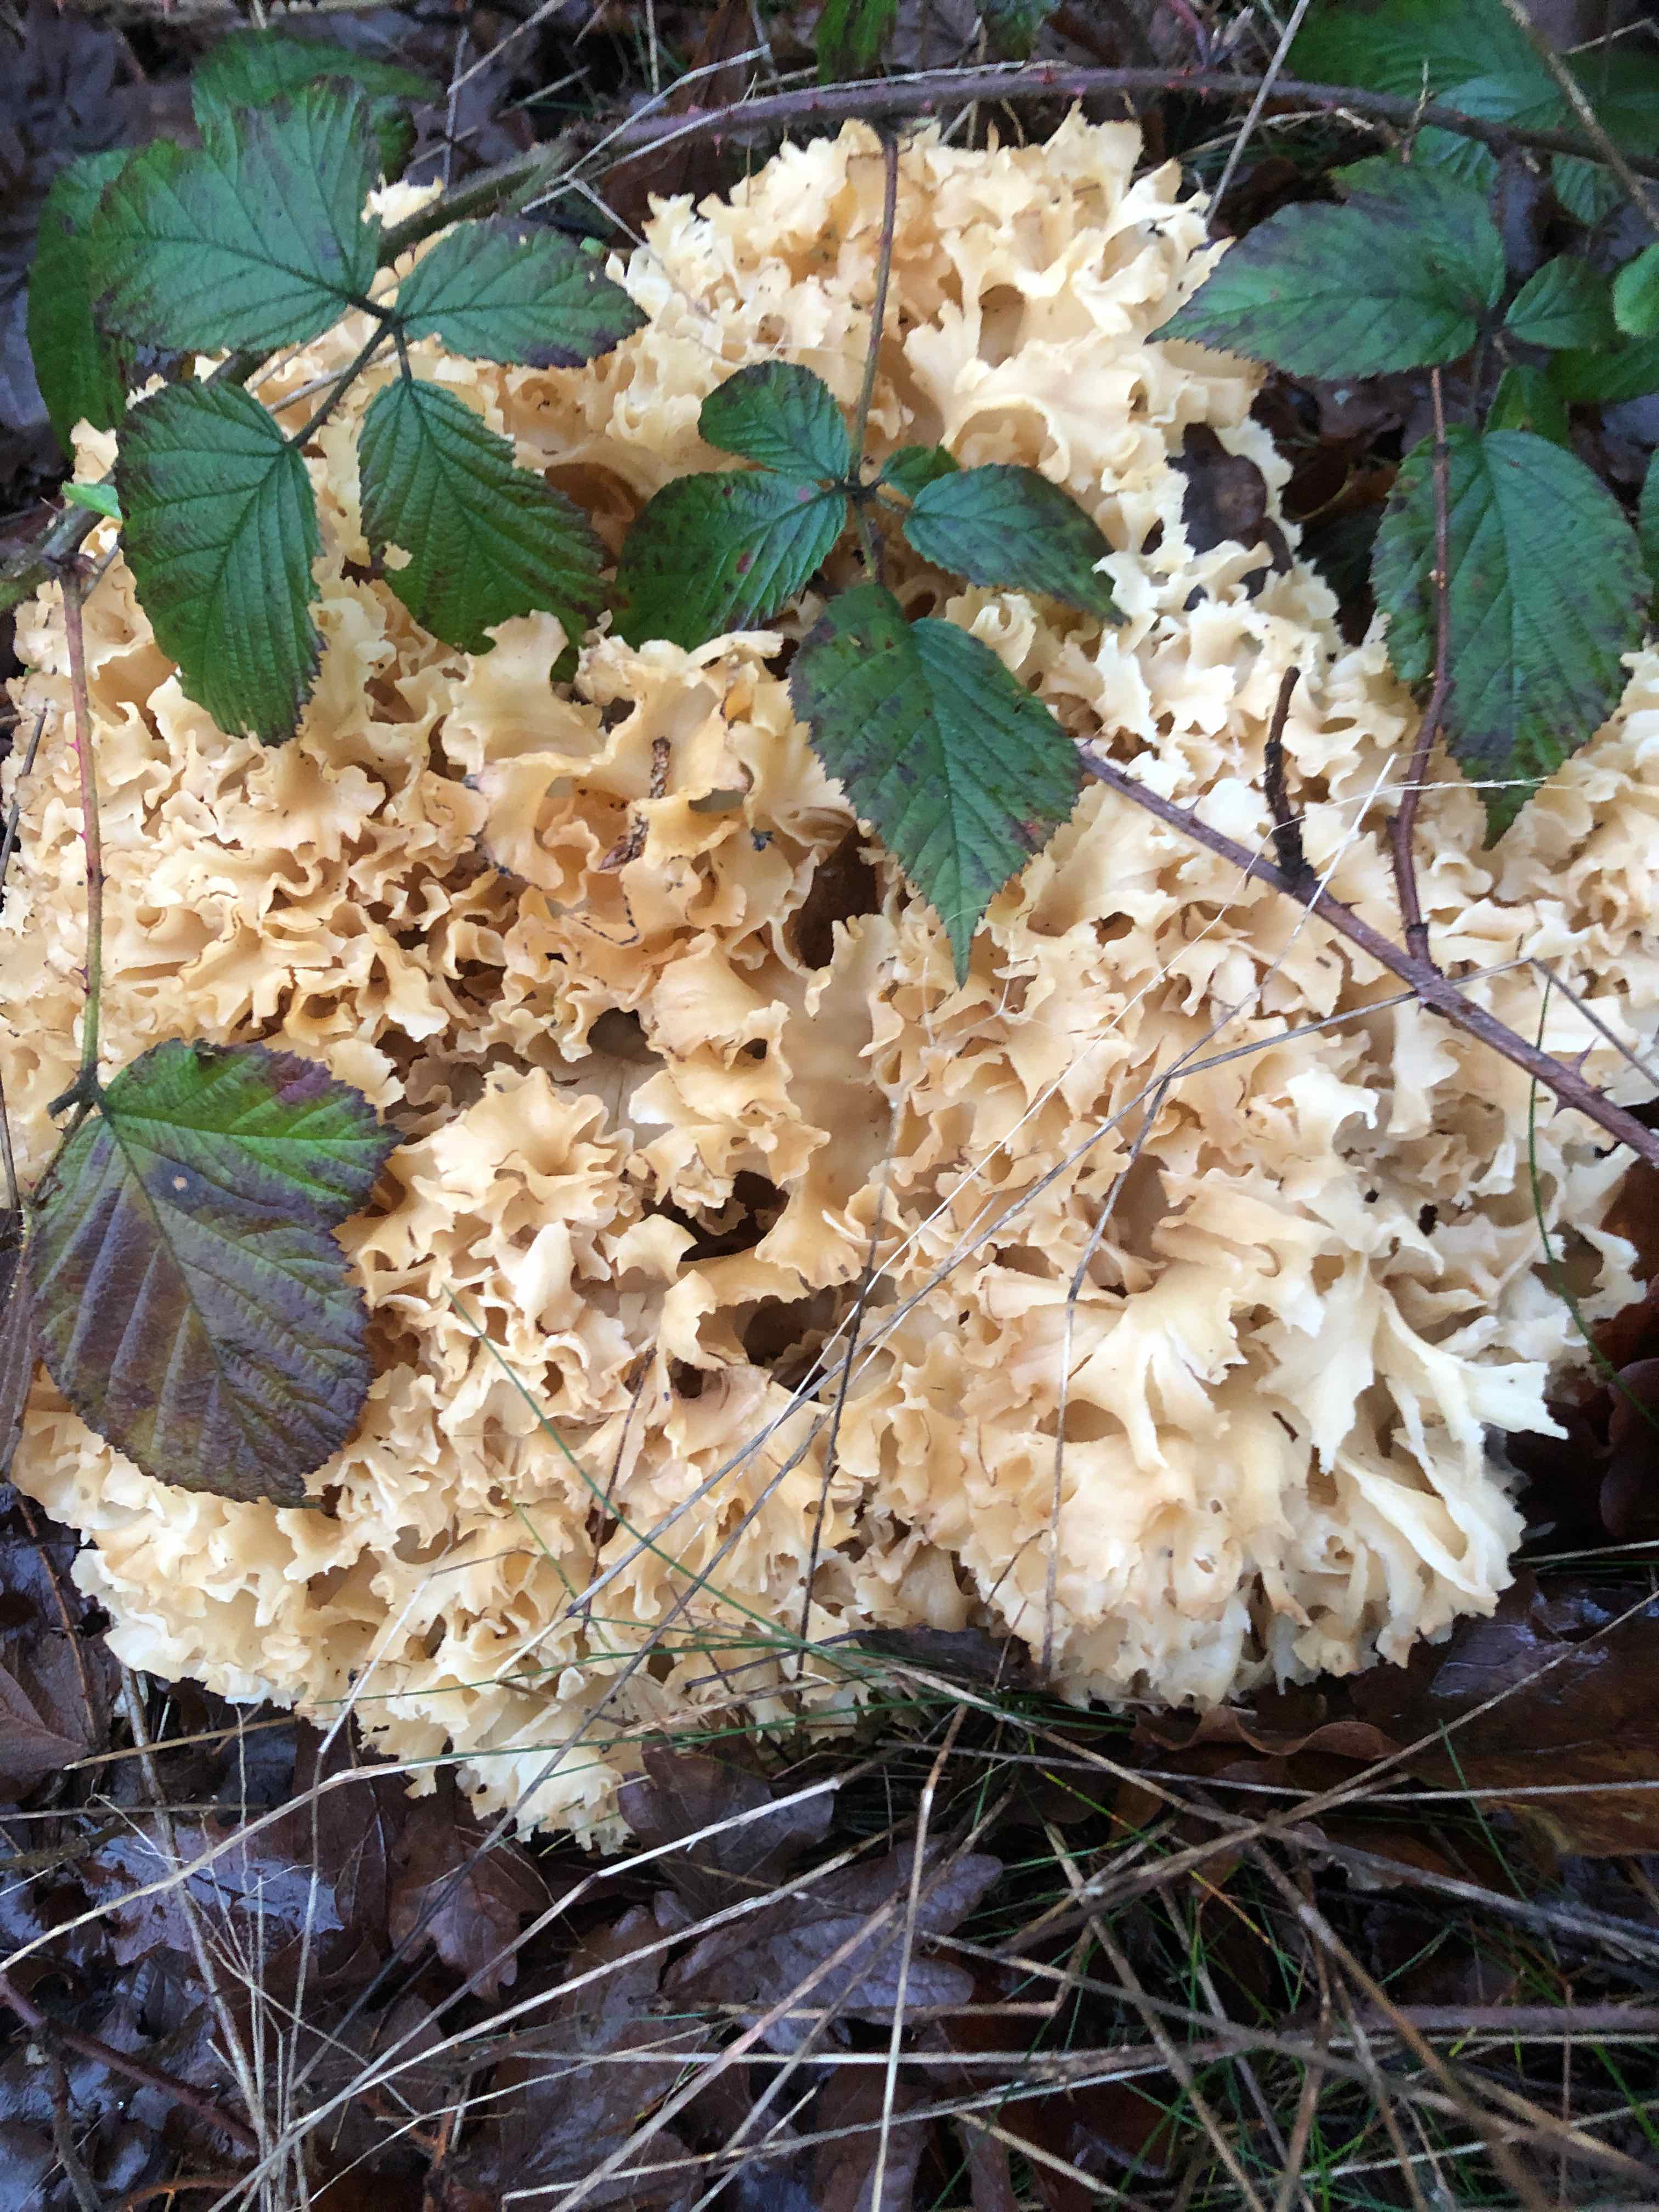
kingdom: Fungi
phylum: Basidiomycota
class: Agaricomycetes
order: Polyporales
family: Sparassidaceae
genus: Sparassis
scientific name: Sparassis crispa
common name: kruset blomkålssvamp
